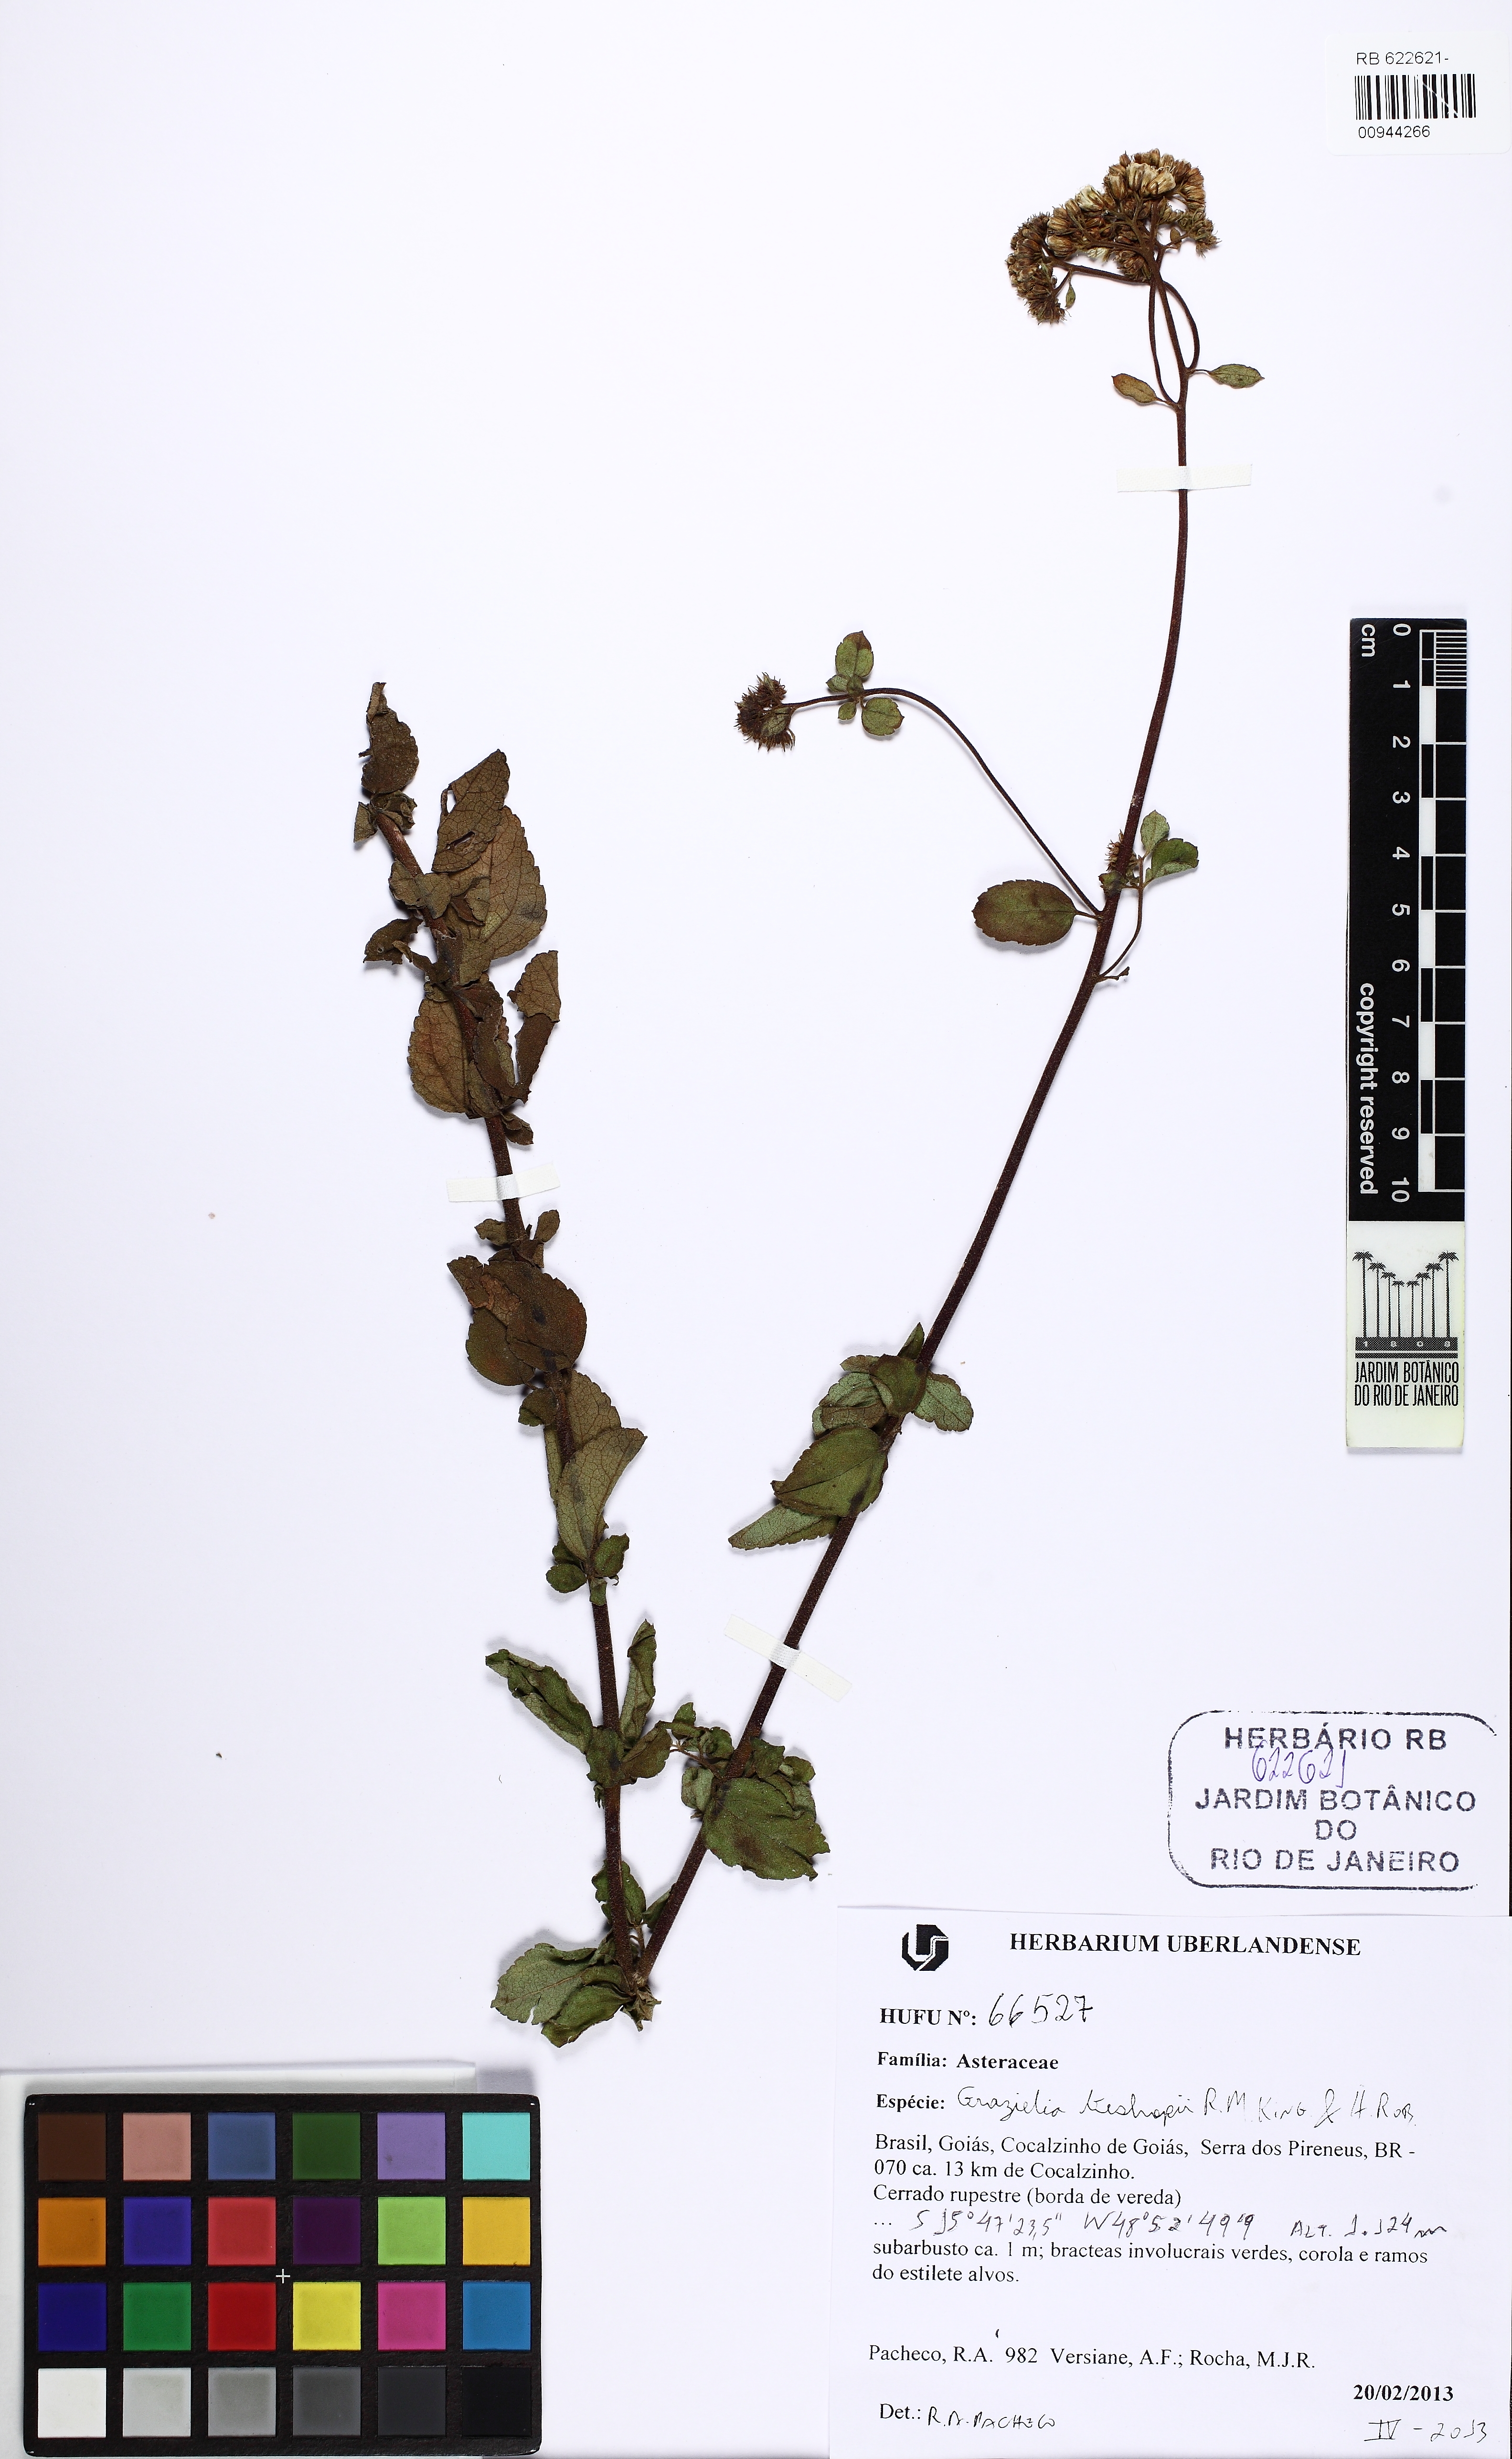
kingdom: Plantae
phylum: Tracheophyta
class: Magnoliopsida
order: Asterales
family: Asteraceae
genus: Grazielia
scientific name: Grazielia bishopii
